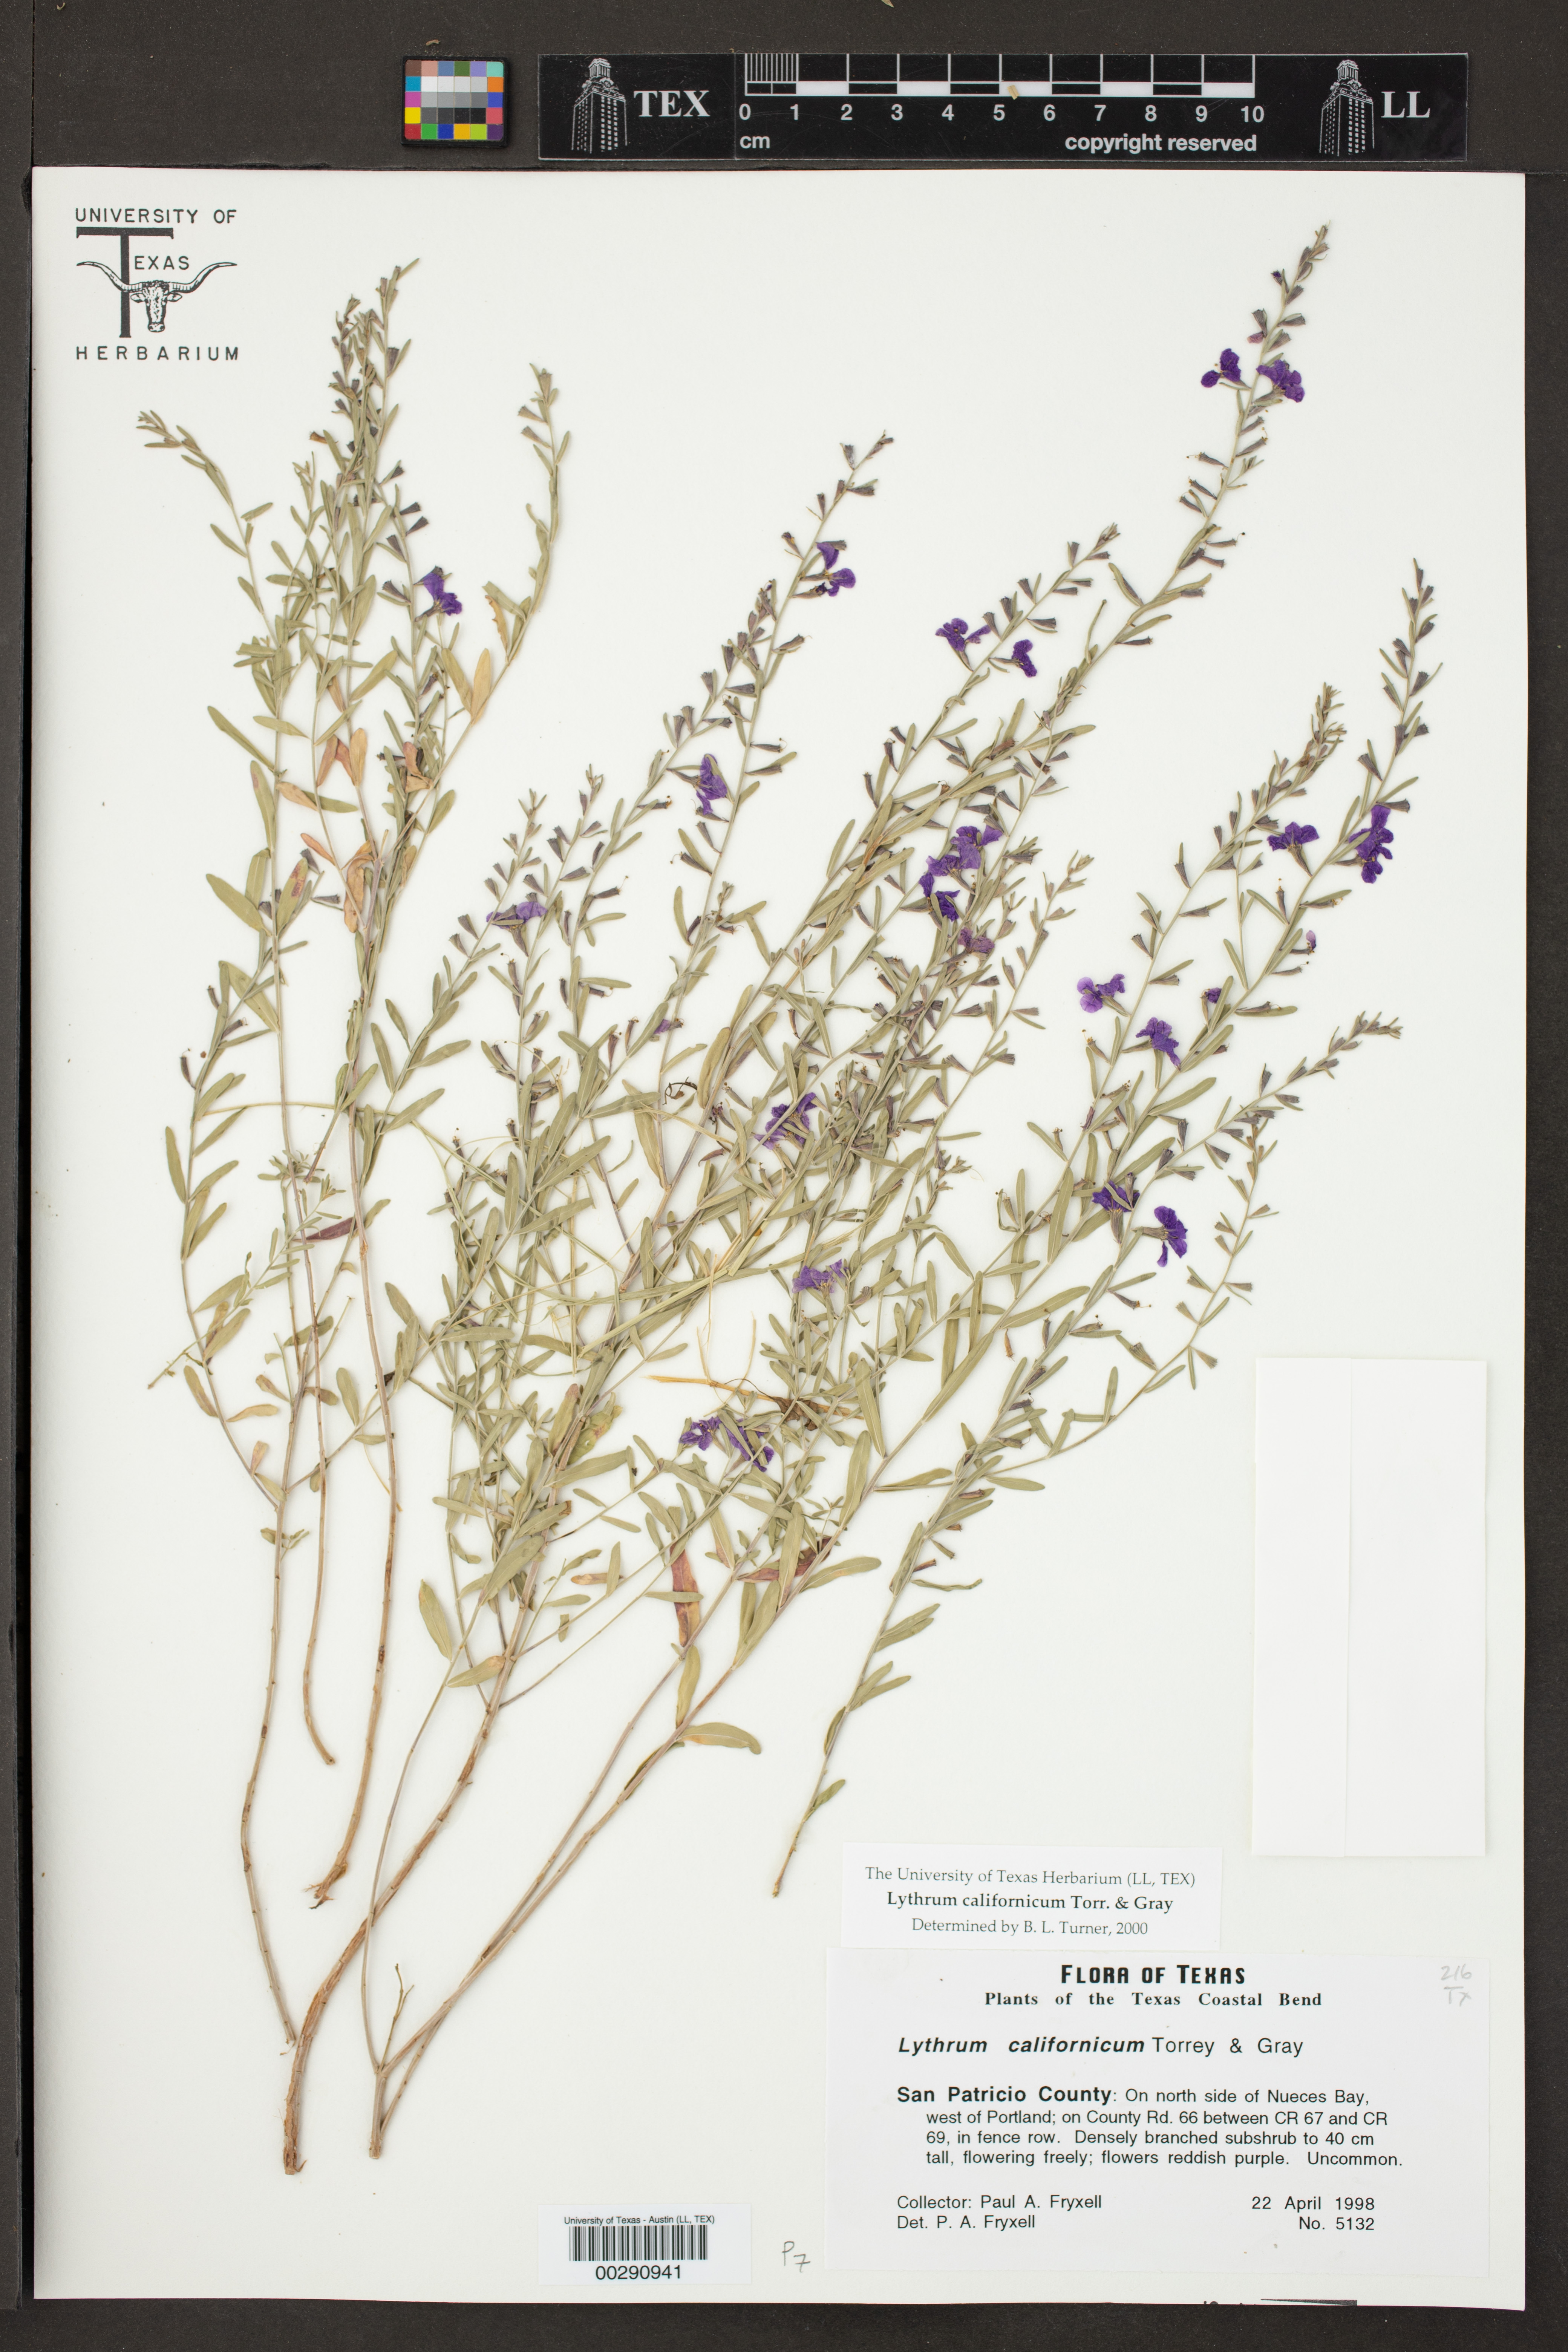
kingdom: Plantae
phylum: Tracheophyta
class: Magnoliopsida
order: Myrtales
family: Lythraceae
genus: Lythrum
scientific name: Lythrum californicum
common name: California loosestrife
